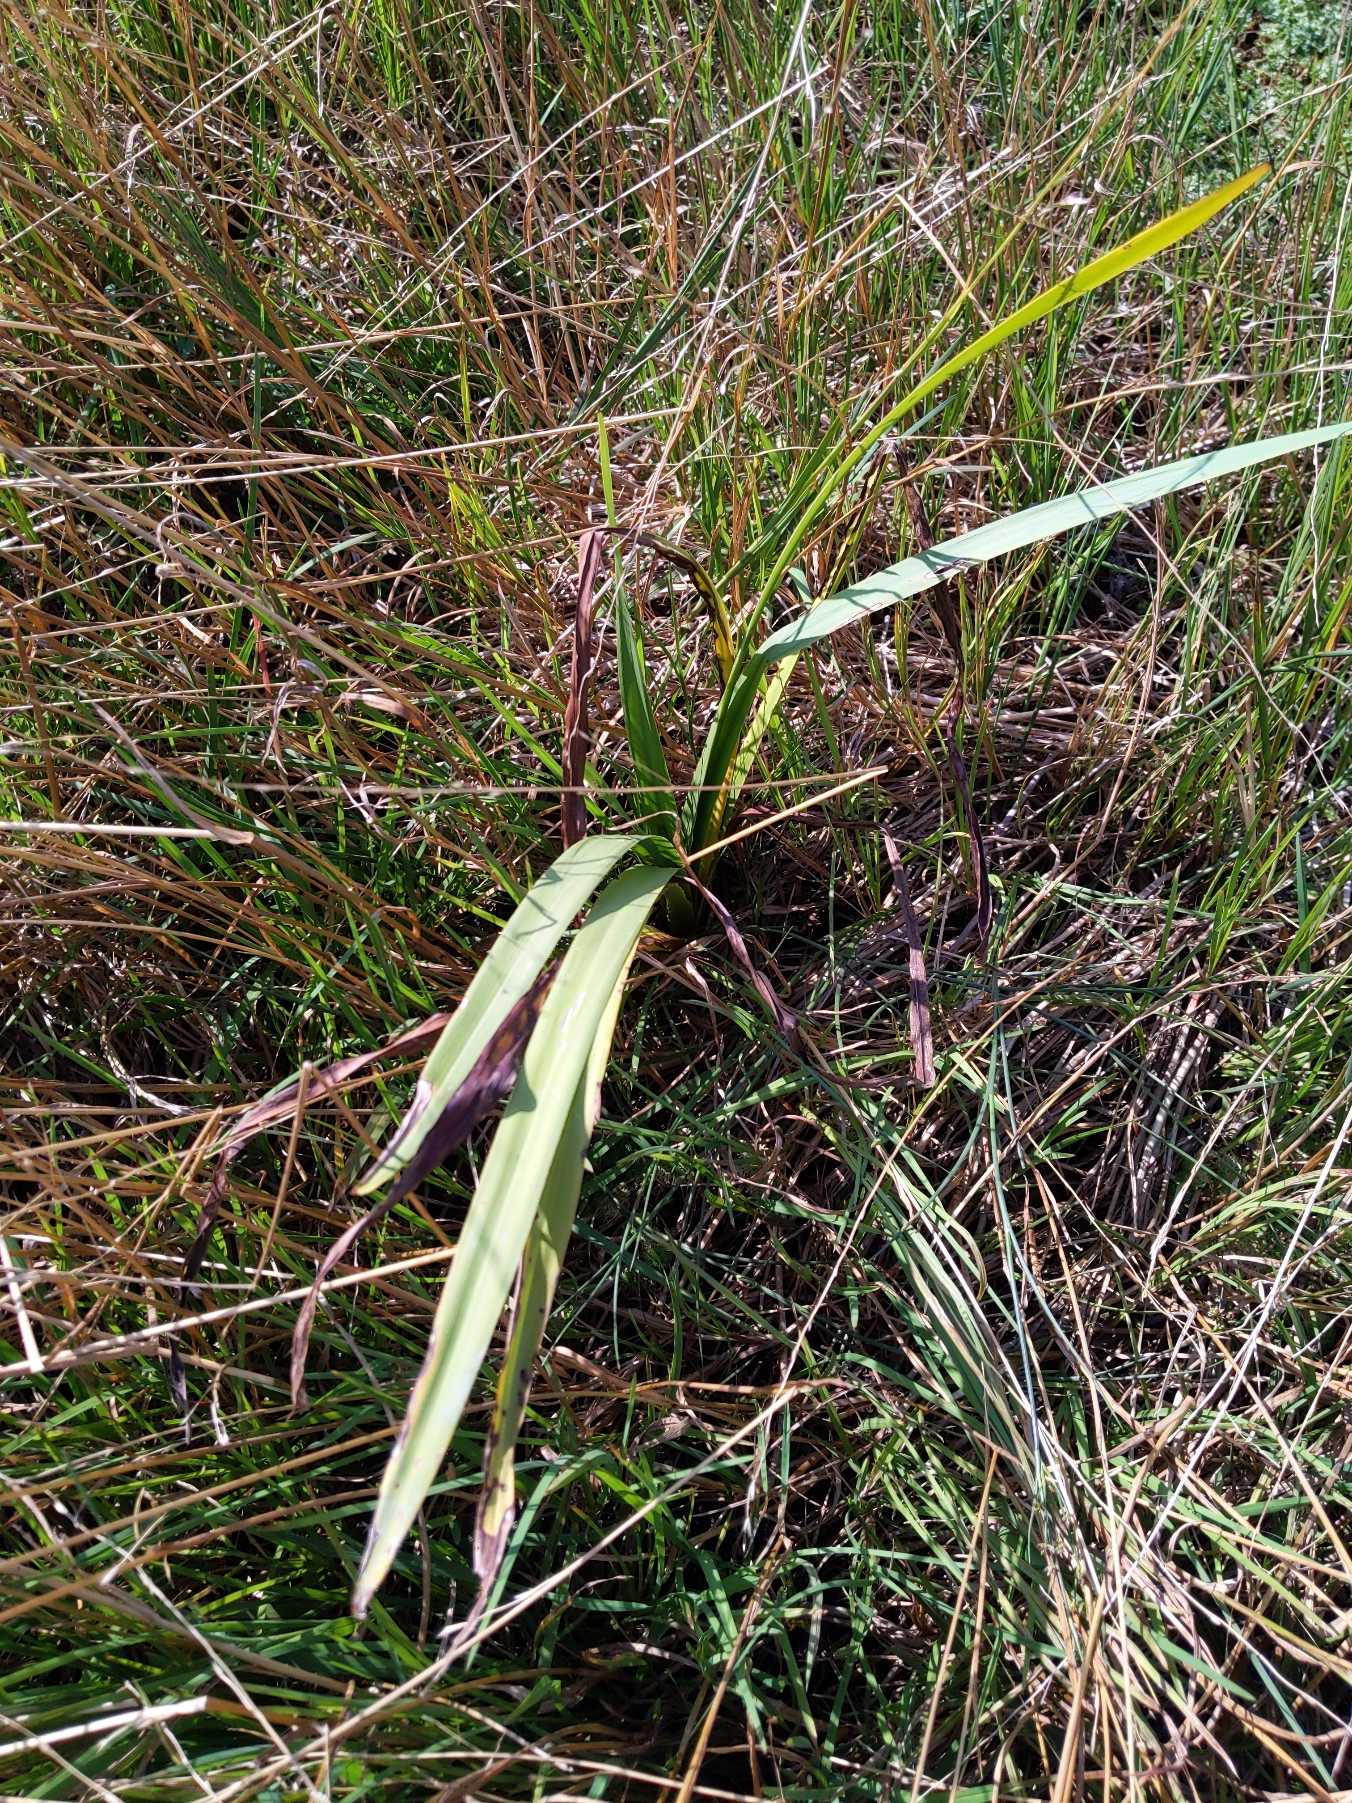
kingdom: Plantae
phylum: Tracheophyta
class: Liliopsida
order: Poales
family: Typhaceae
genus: Sparganium
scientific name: Sparganium
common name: Pindsvineknopslægten
